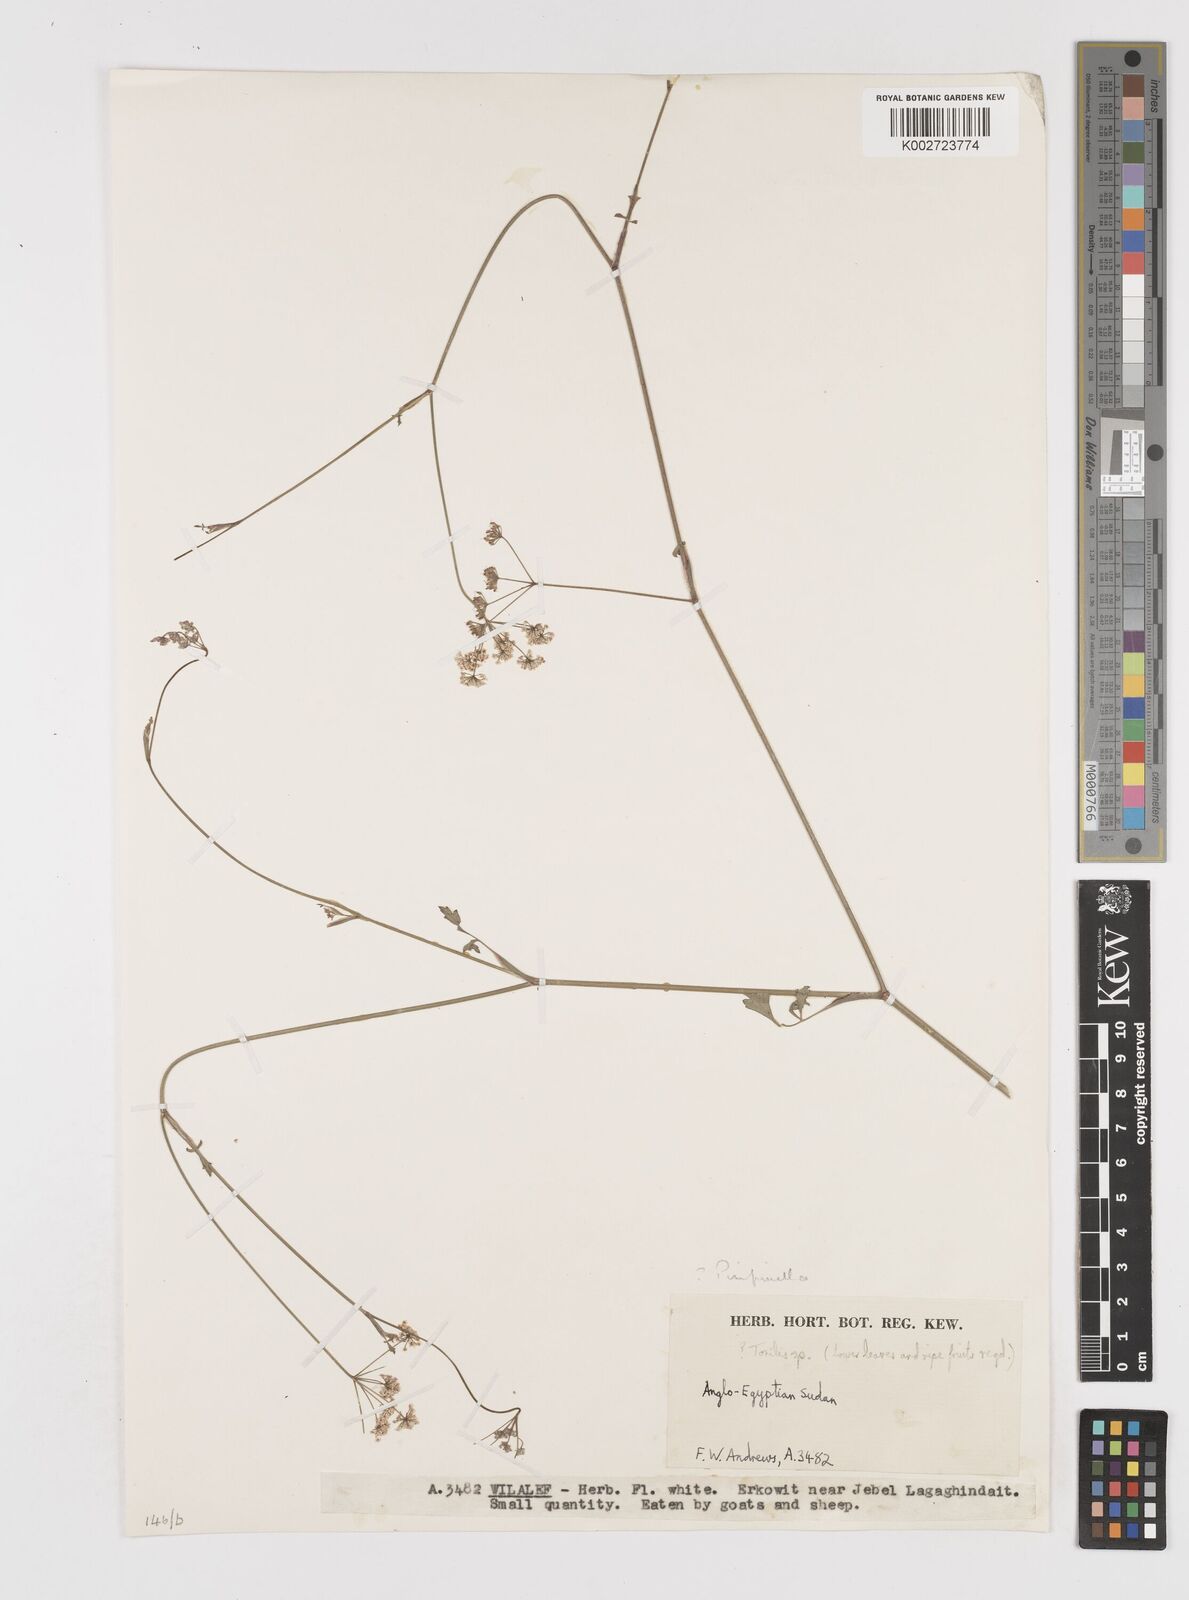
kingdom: Plantae
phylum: Tracheophyta
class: Magnoliopsida
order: Apiales
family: Apiaceae
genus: Torilis
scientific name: Torilis
